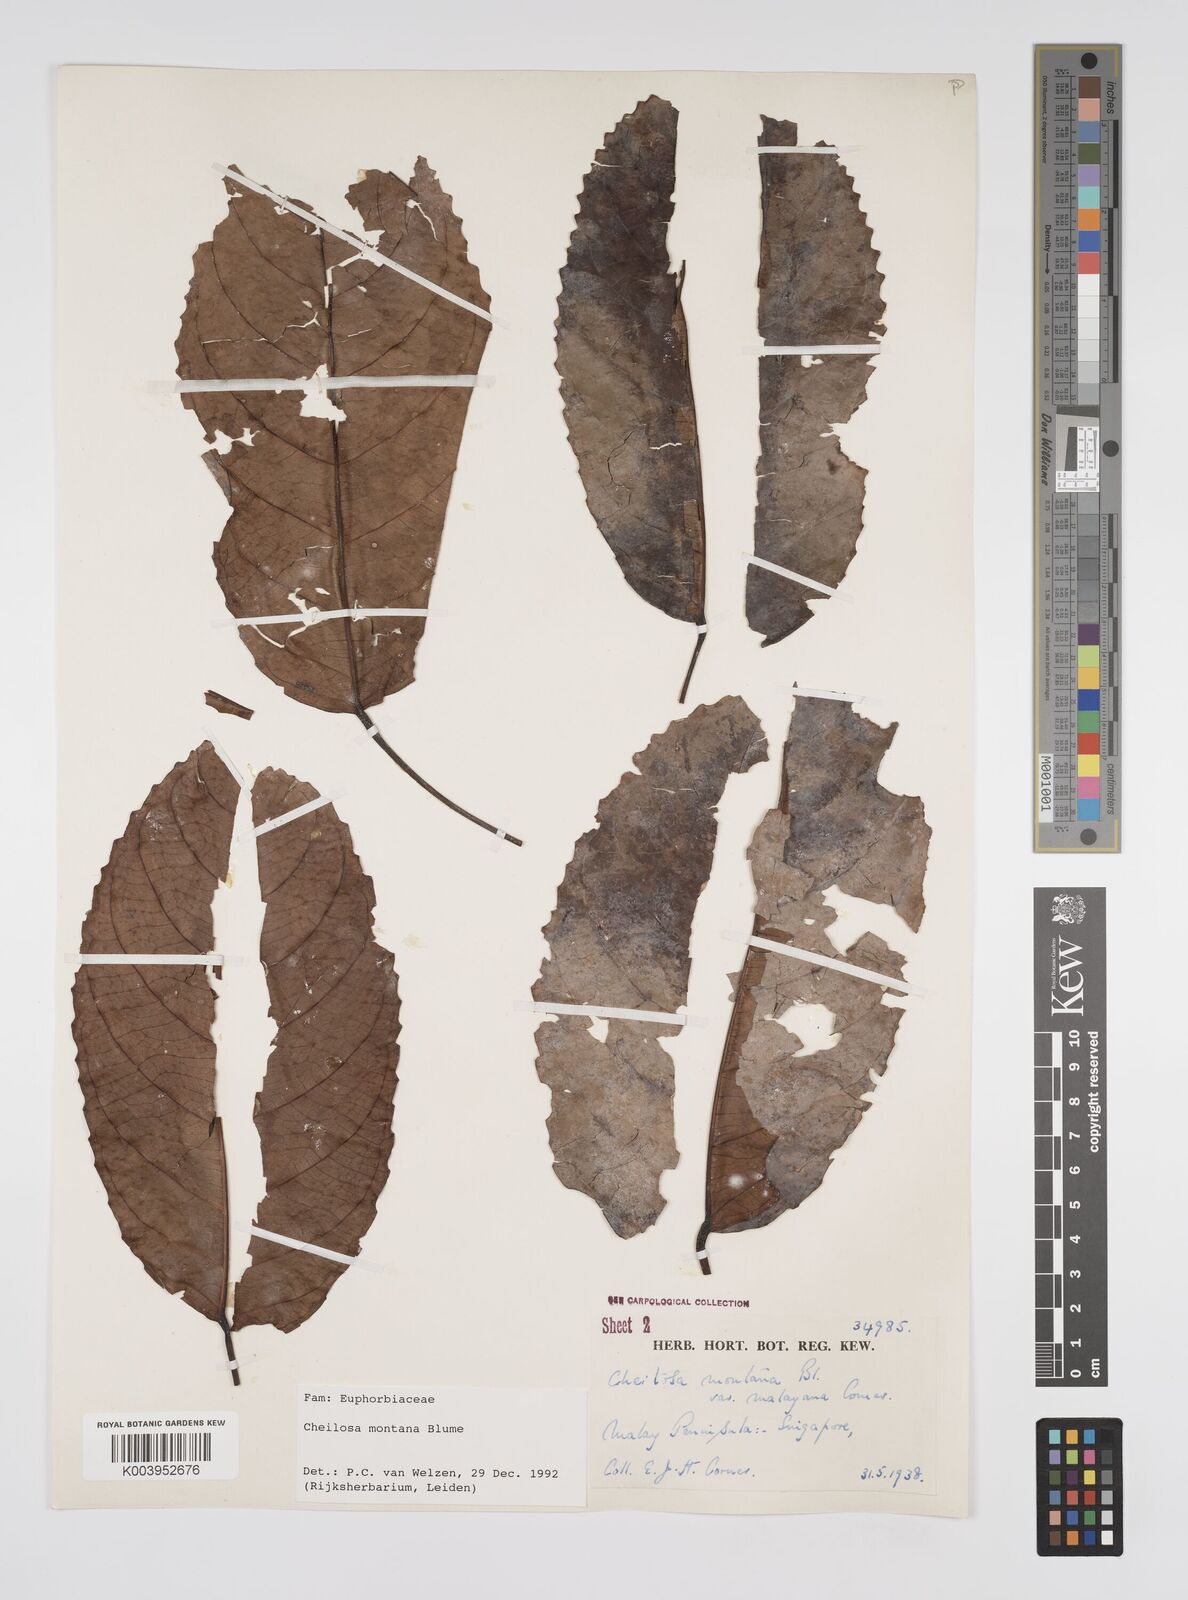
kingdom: Plantae
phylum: Tracheophyta
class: Magnoliopsida
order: Malpighiales
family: Euphorbiaceae
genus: Cheilosa
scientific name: Cheilosa montana
